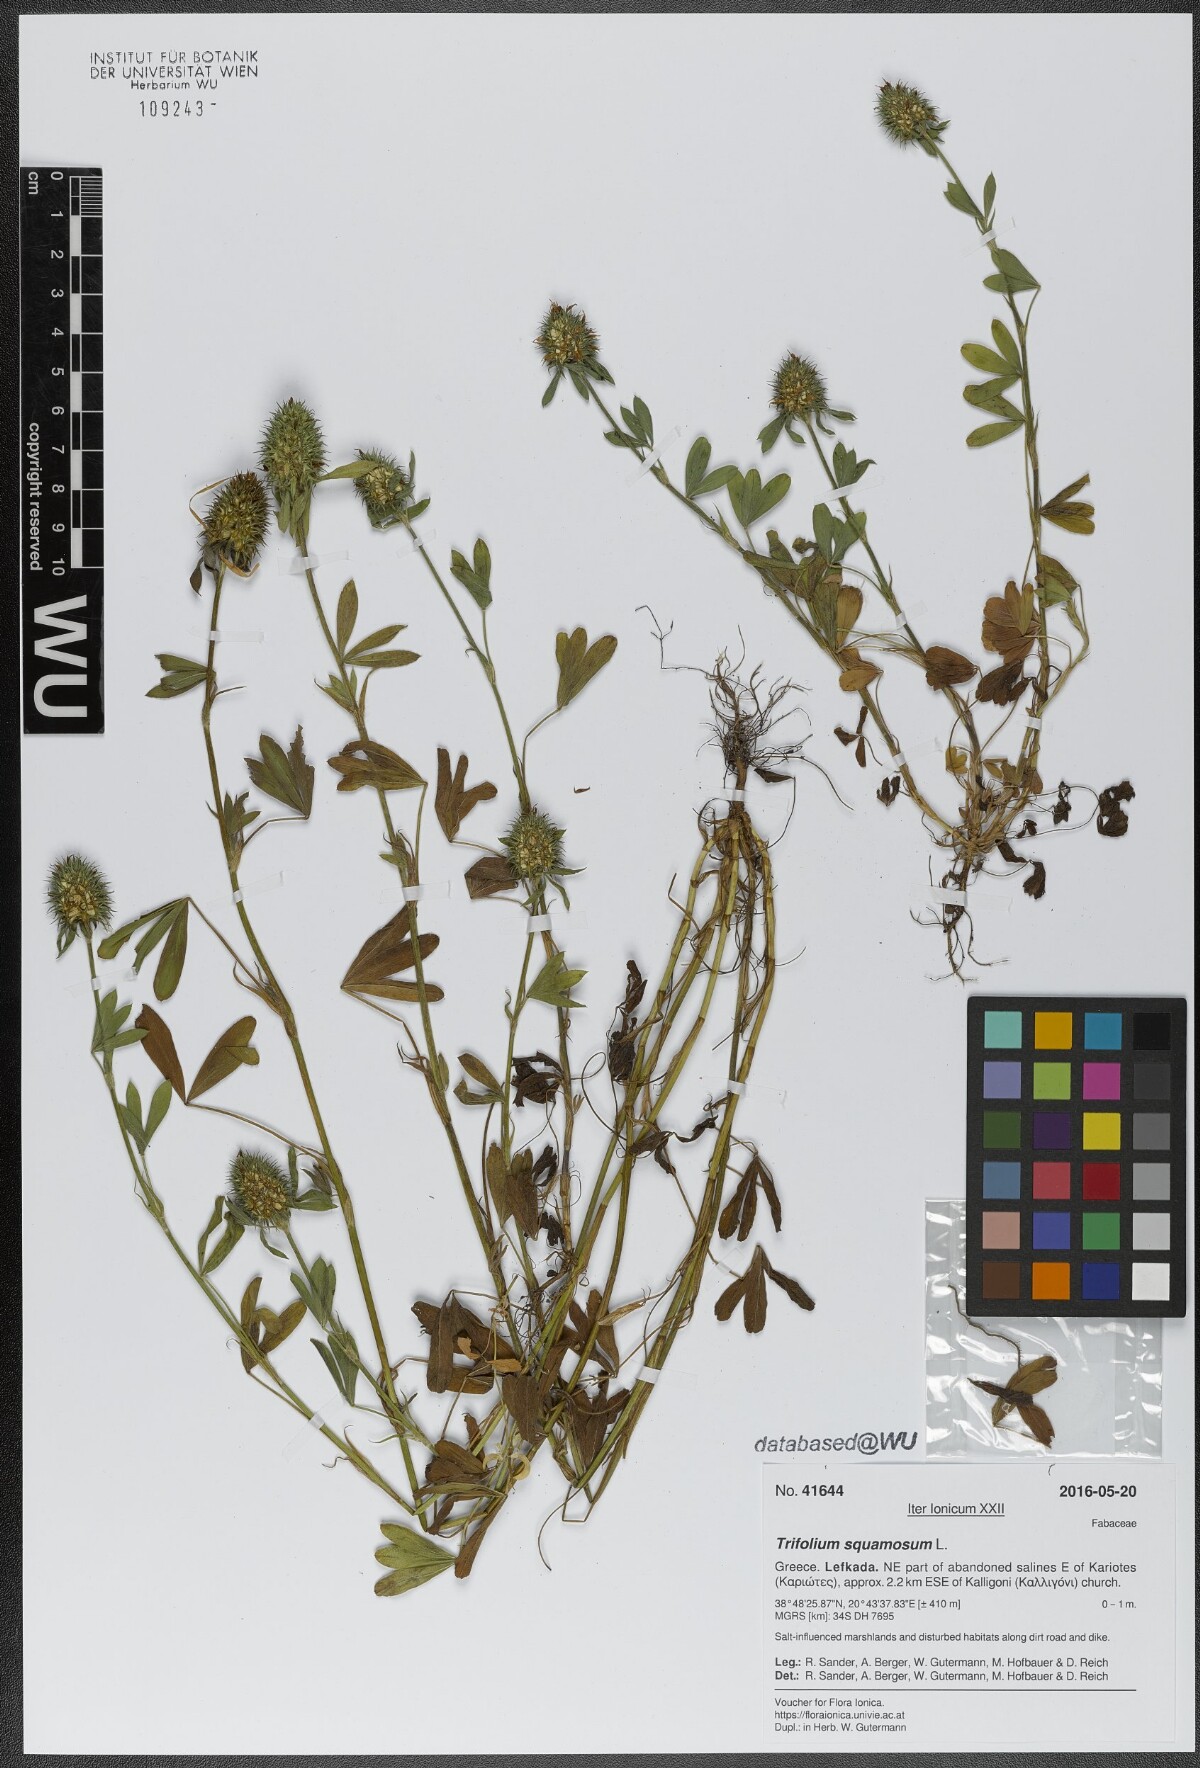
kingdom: Plantae
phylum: Tracheophyta
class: Magnoliopsida
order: Fabales
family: Fabaceae
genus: Trifolium
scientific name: Trifolium squamosum
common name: Sea clover
